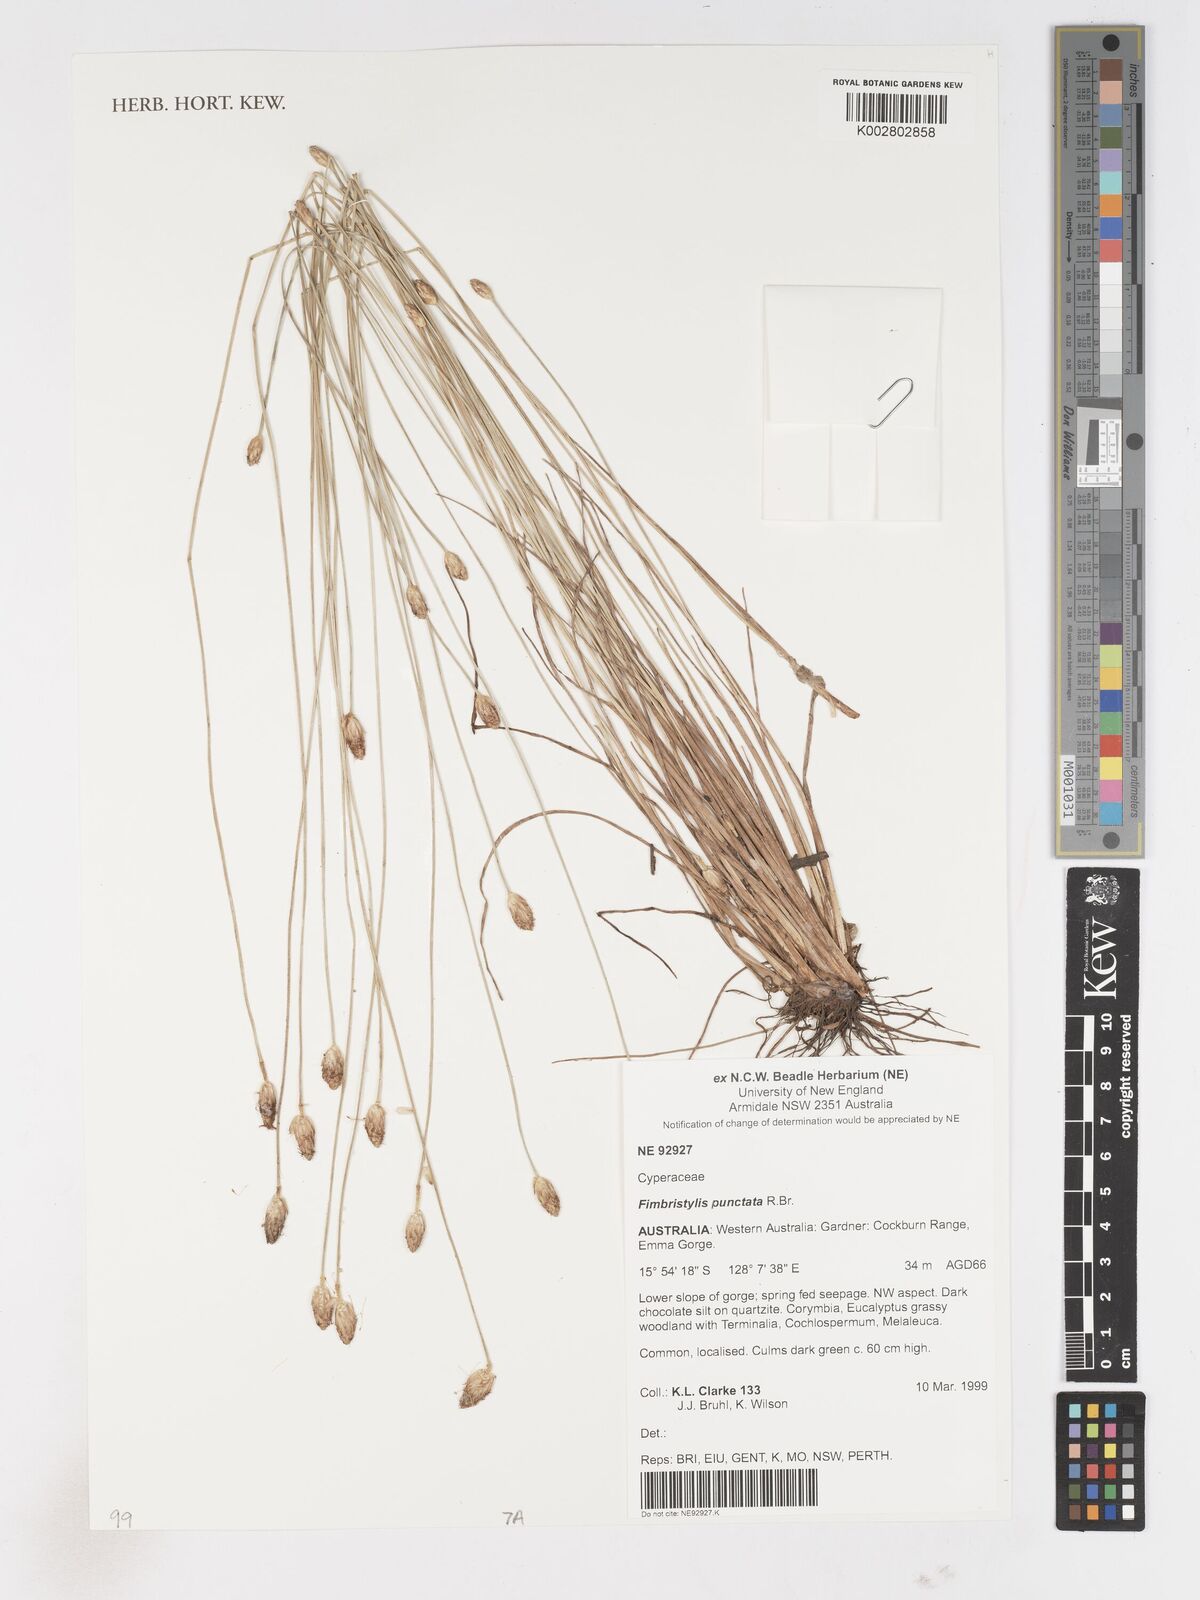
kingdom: Plantae
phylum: Tracheophyta
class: Liliopsida
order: Poales
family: Cyperaceae
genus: Fimbristylis
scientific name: Fimbristylis punctata
